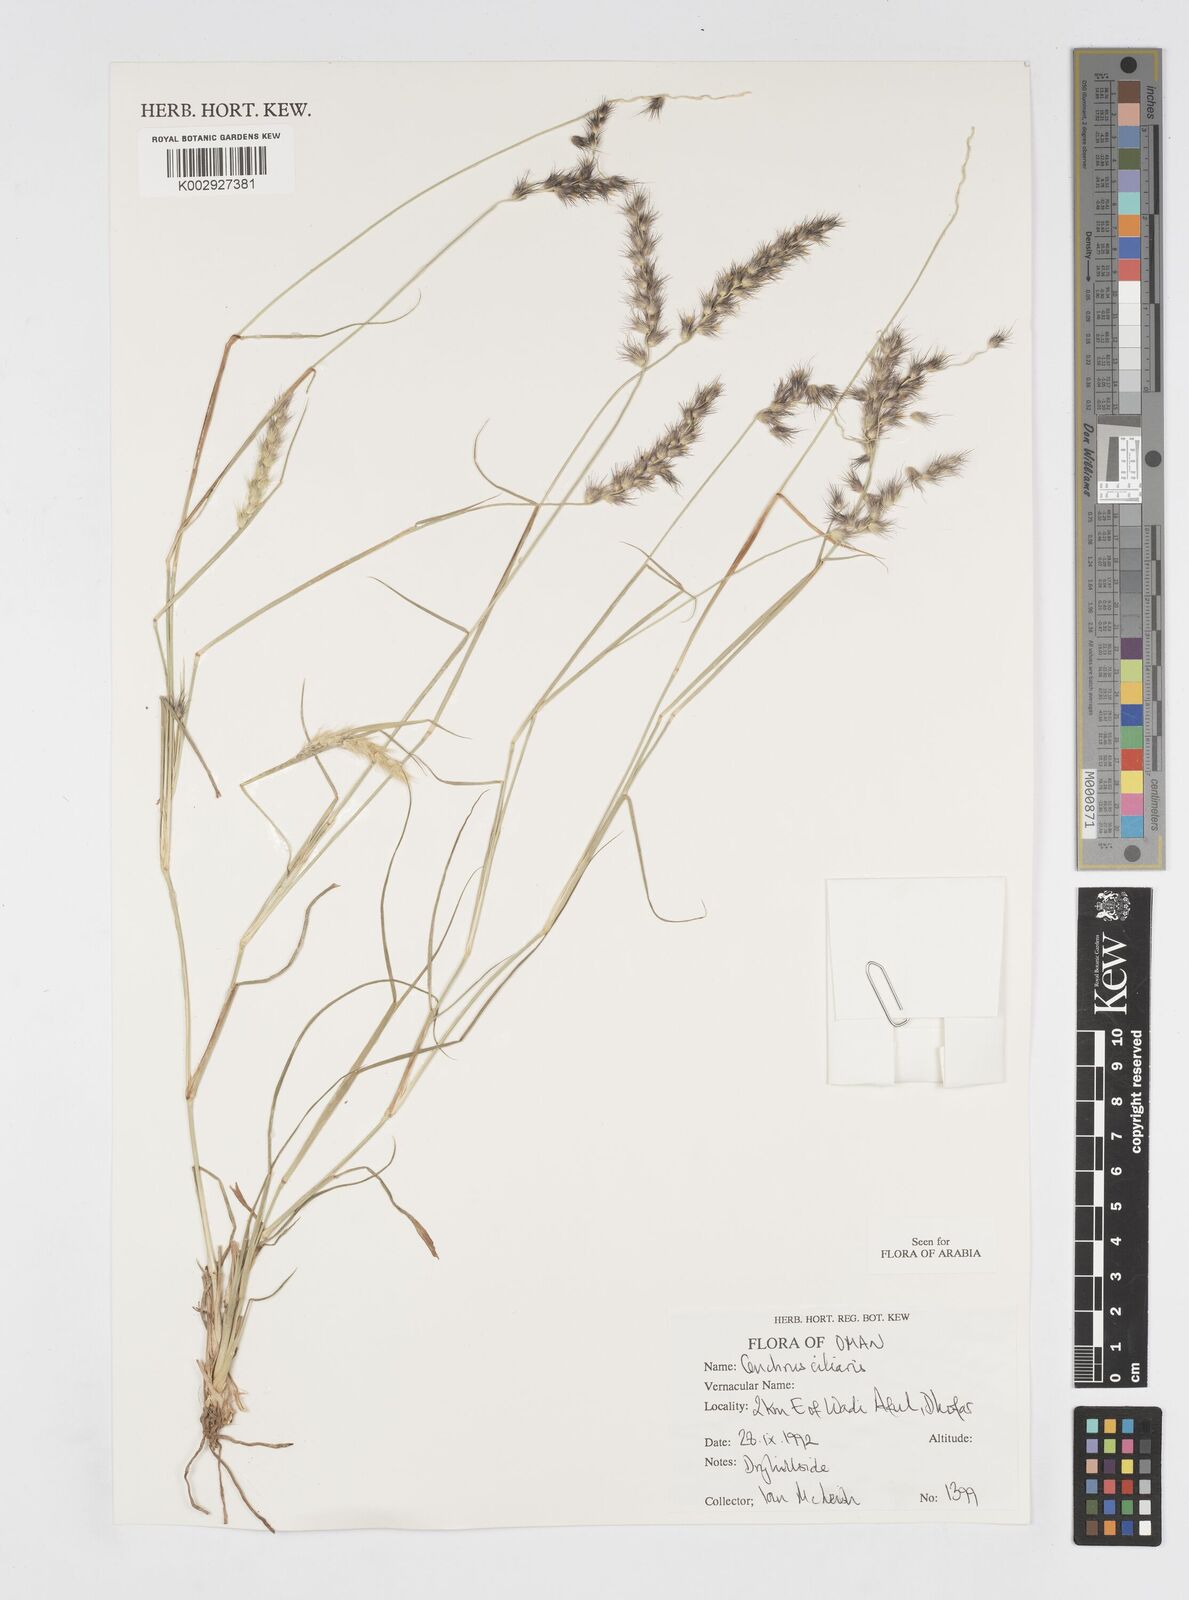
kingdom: Plantae
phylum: Tracheophyta
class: Liliopsida
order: Poales
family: Poaceae
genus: Cenchrus
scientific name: Cenchrus ciliaris
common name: Buffelgrass
